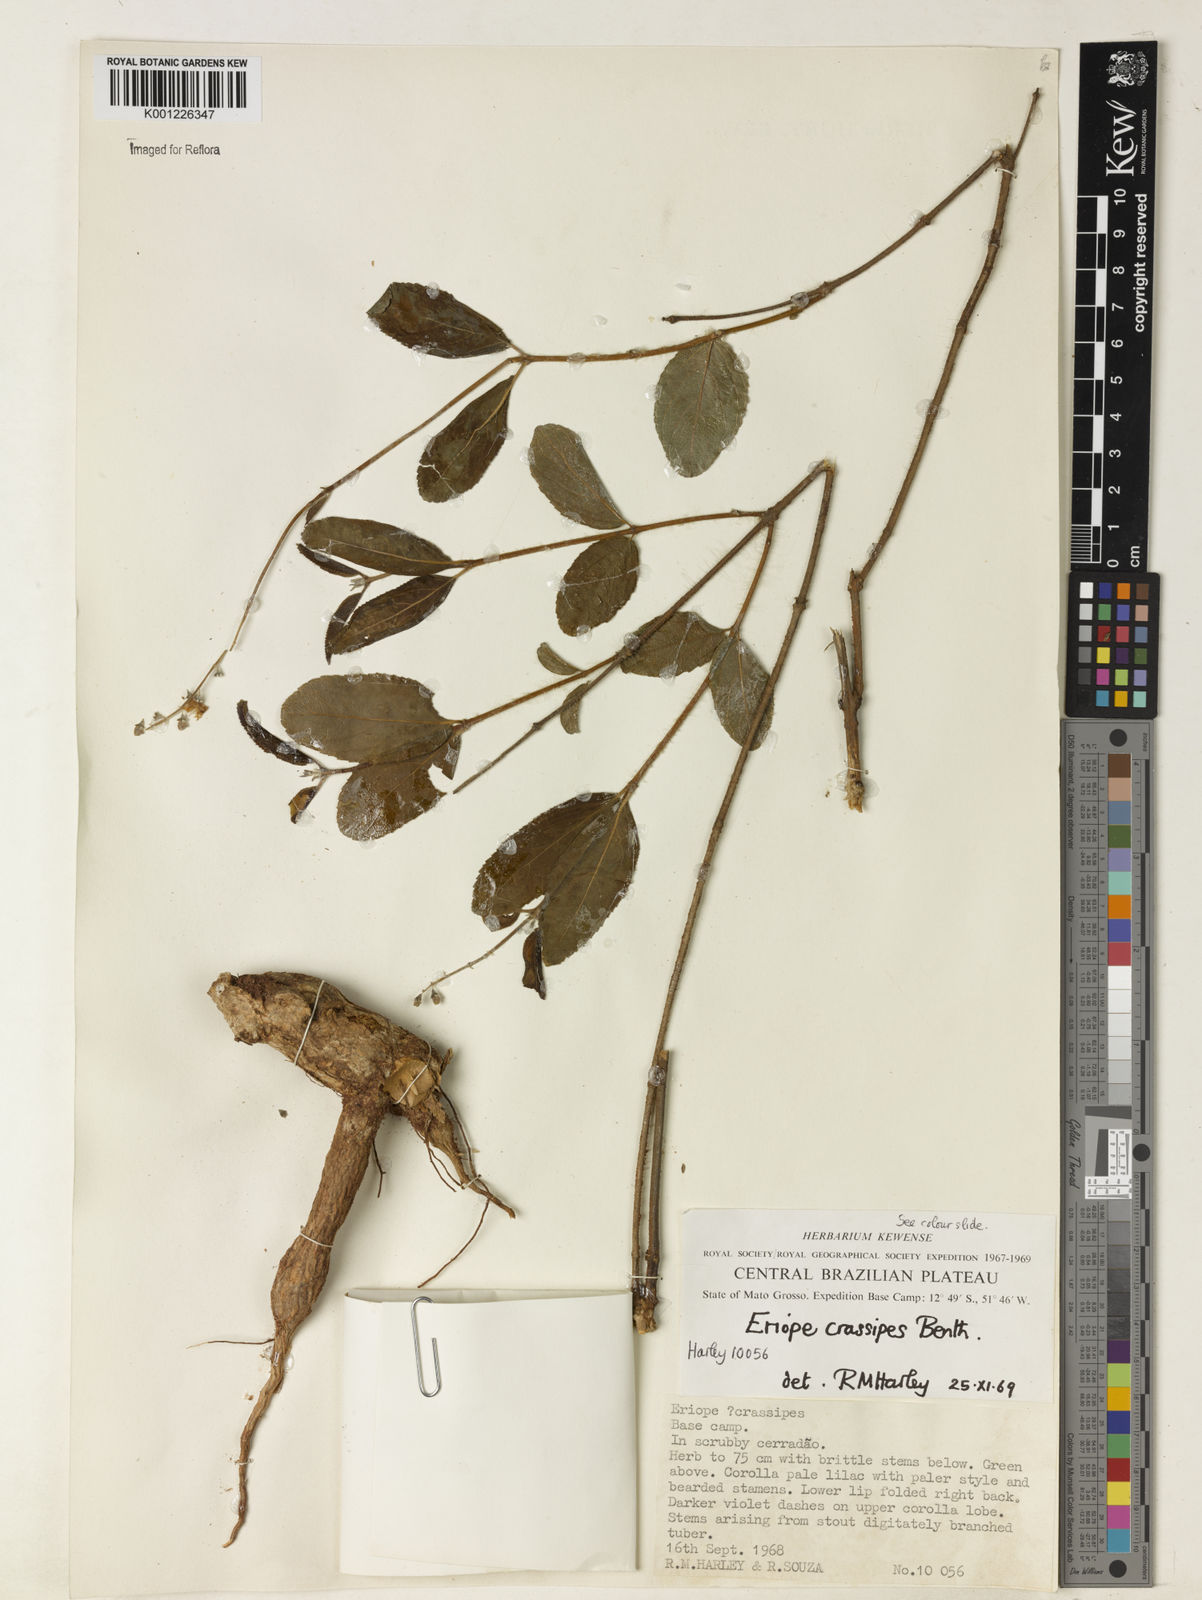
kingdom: Plantae
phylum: Tracheophyta
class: Magnoliopsida
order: Lamiales
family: Lamiaceae
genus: Eriope
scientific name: Eriope crassipes
